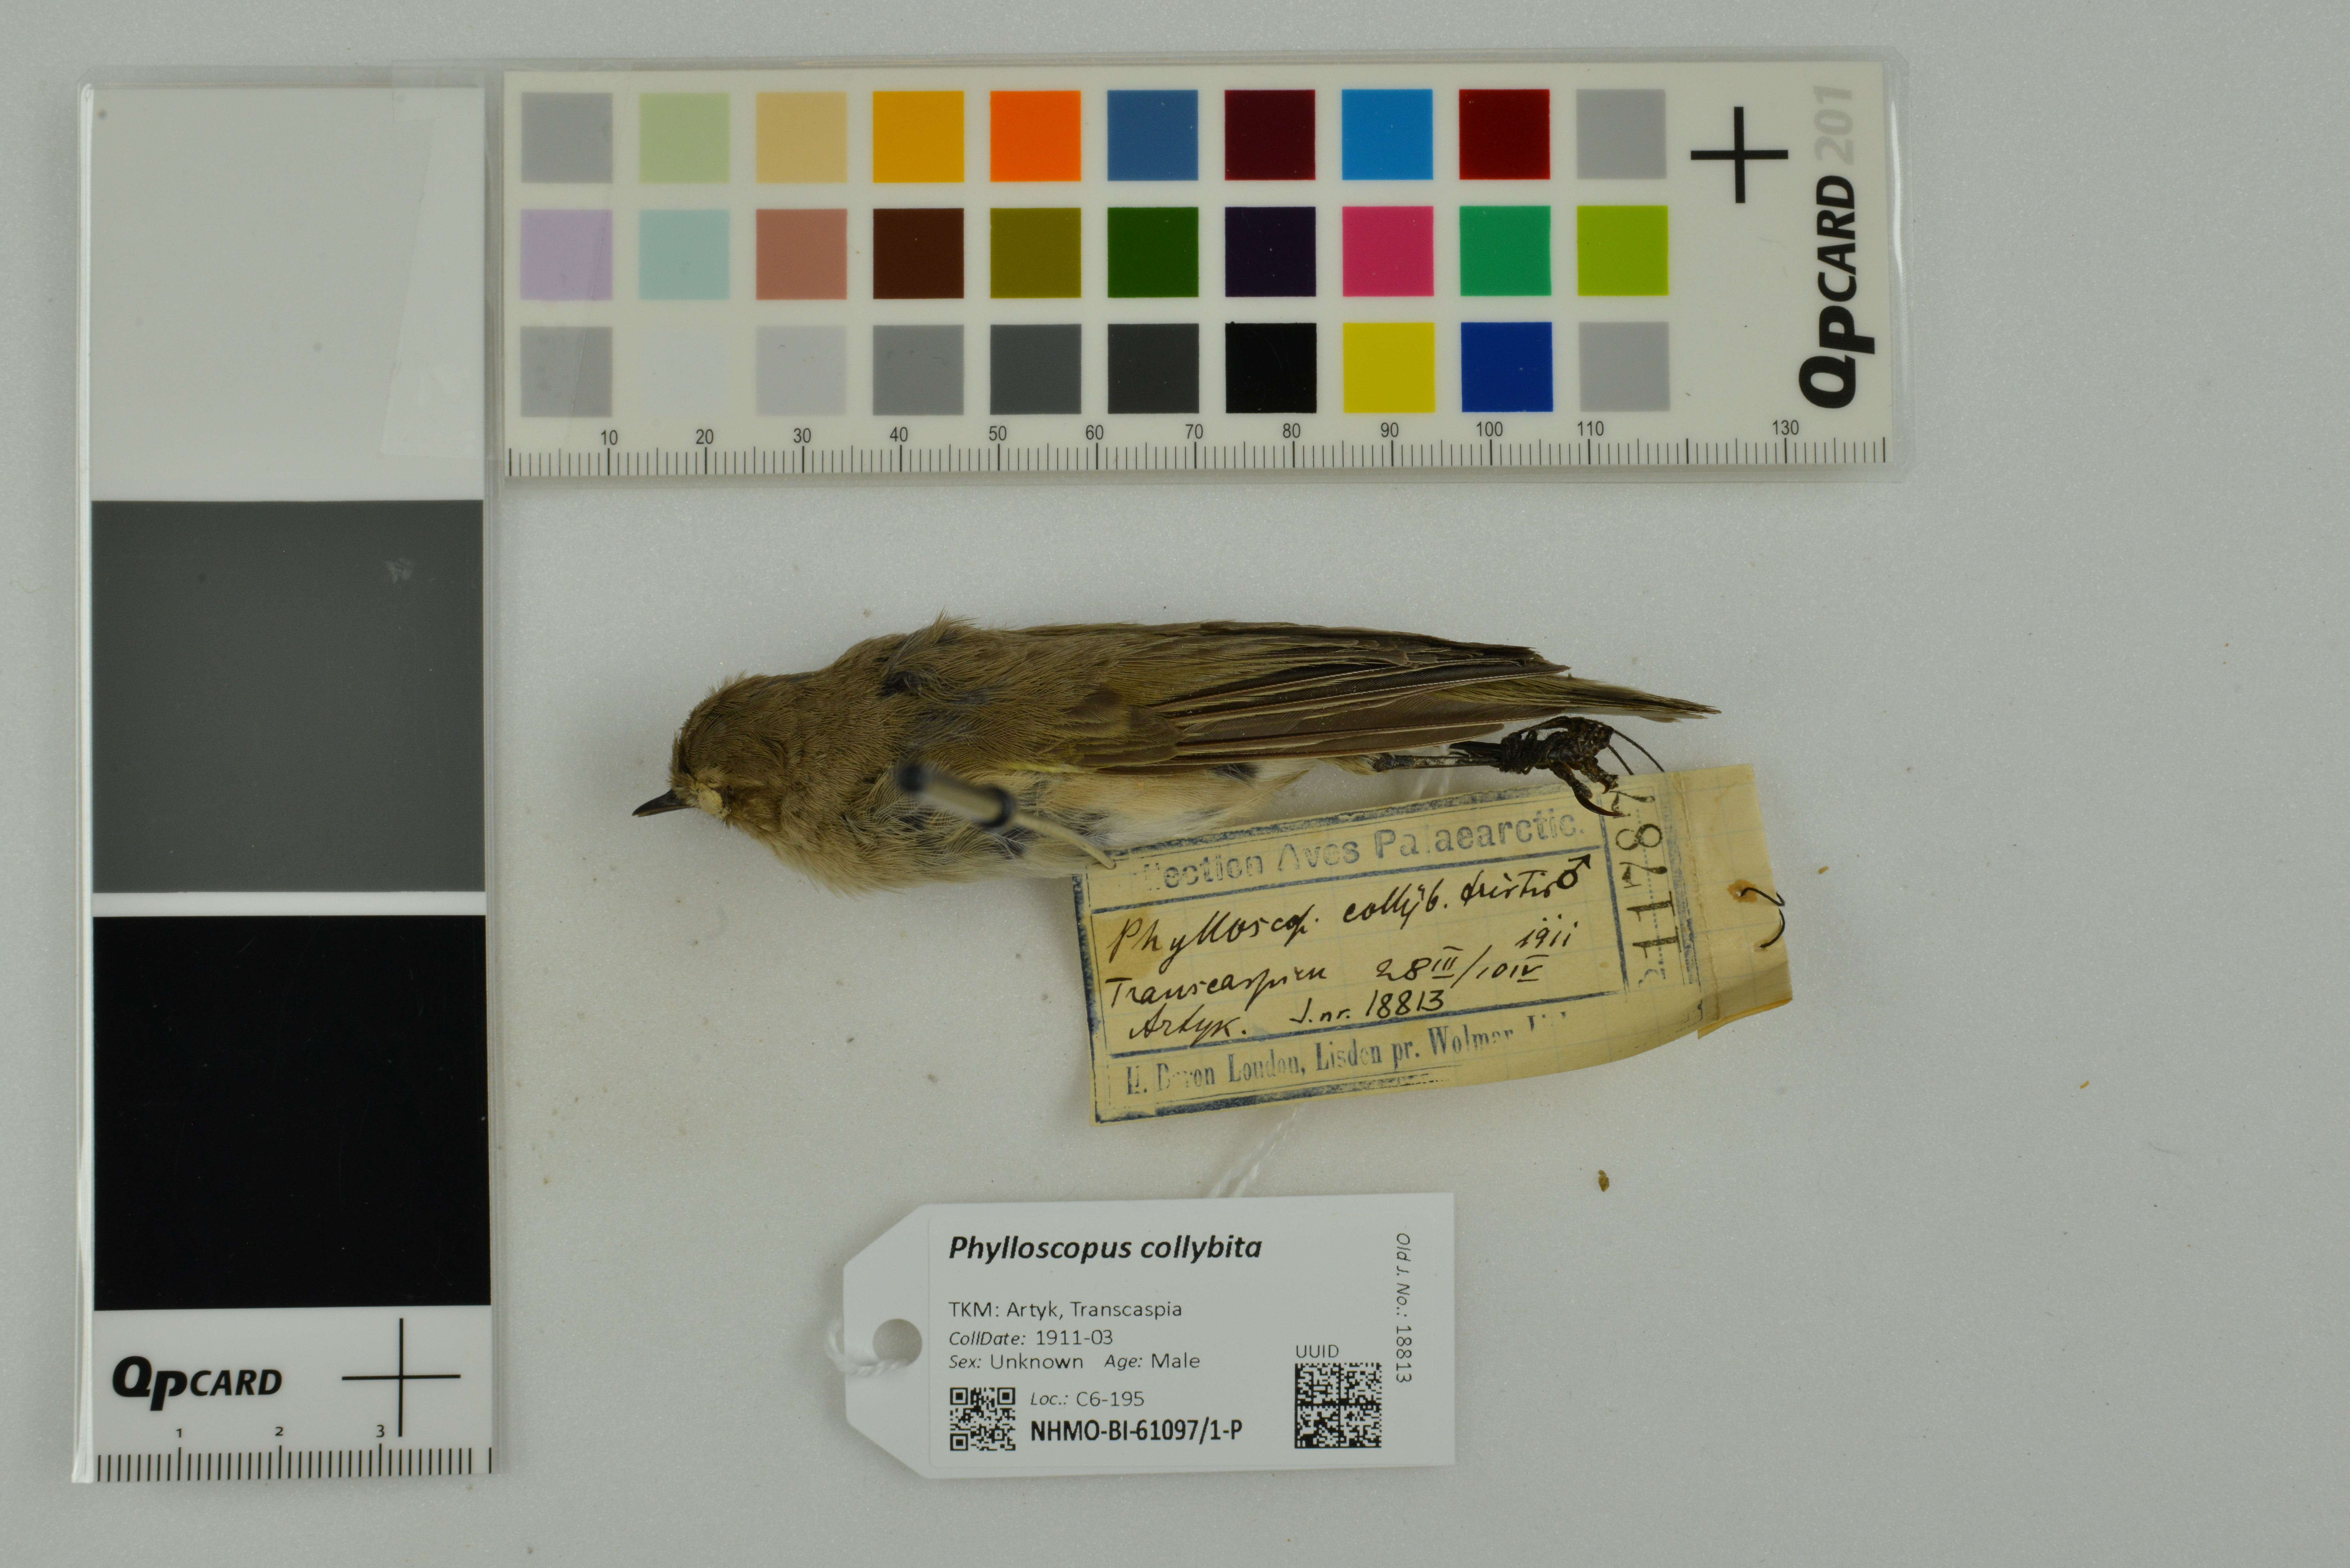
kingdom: Animalia
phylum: Chordata
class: Aves
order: Passeriformes
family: Phylloscopidae
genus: Phylloscopus
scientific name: Phylloscopus collybita
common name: Common chiffchaff
